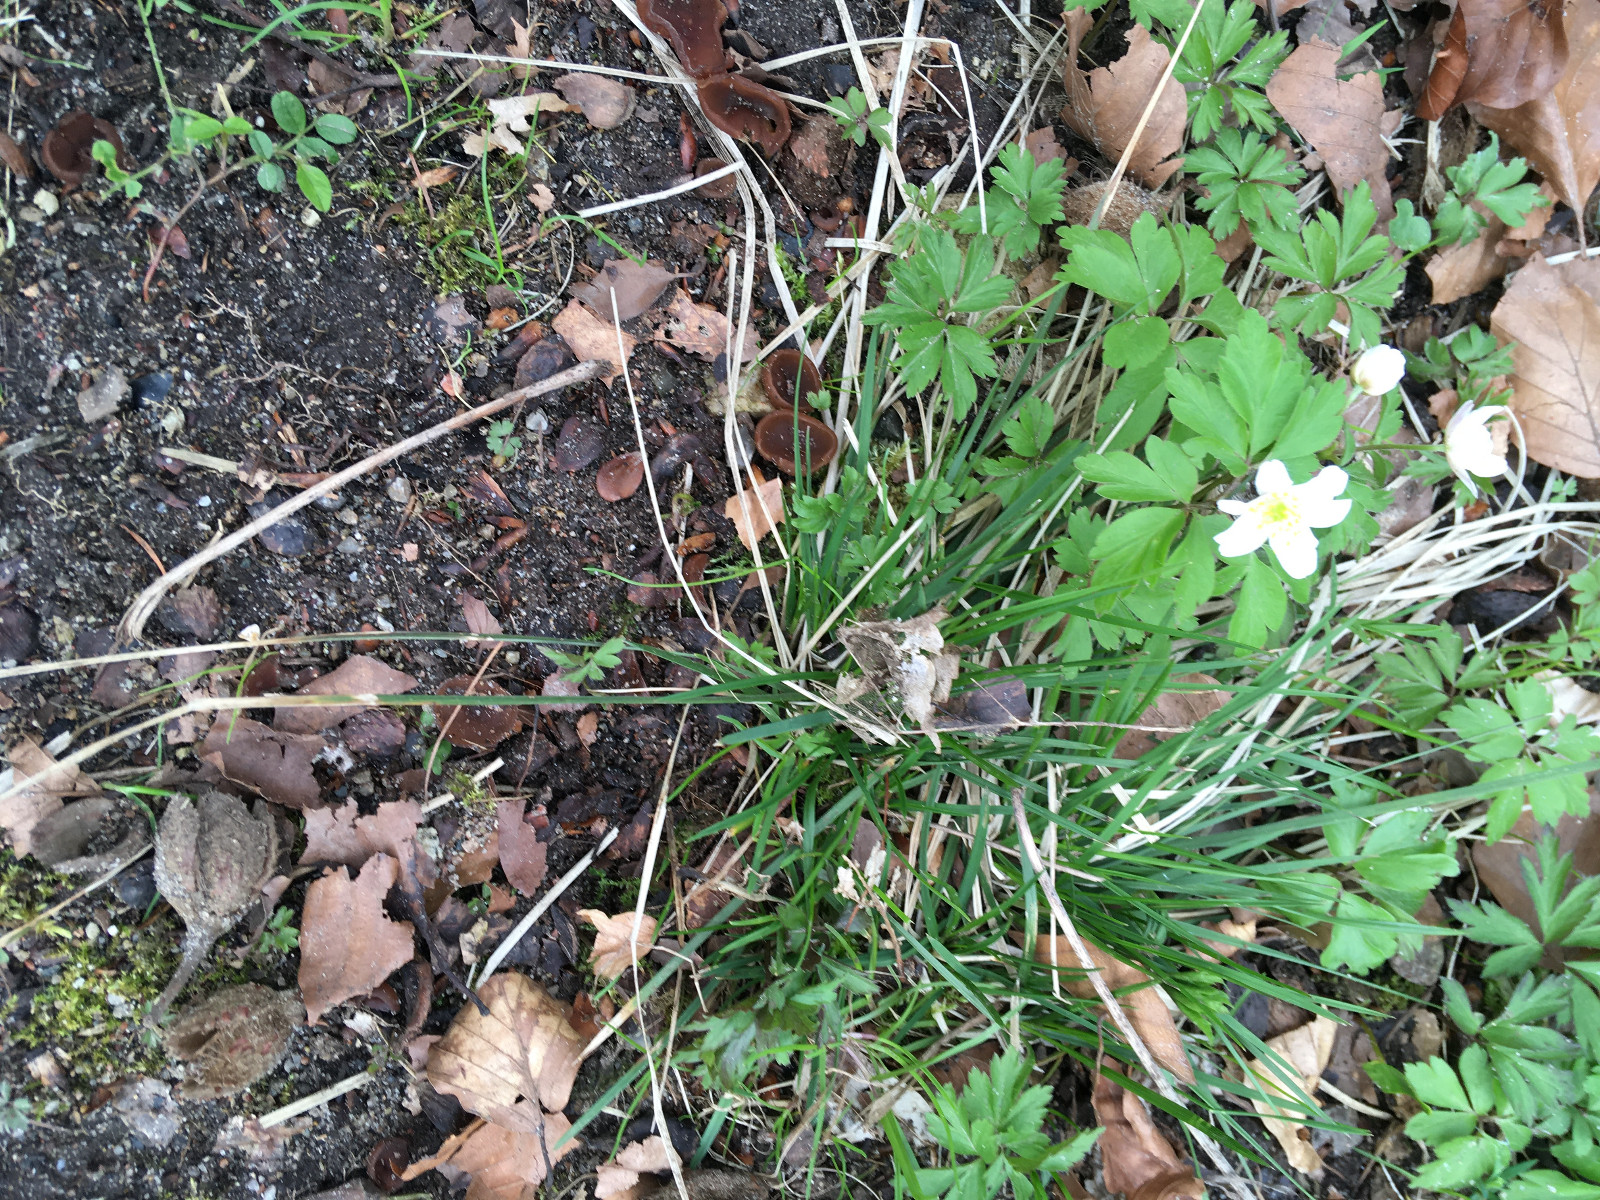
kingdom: Fungi
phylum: Ascomycota
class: Leotiomycetes
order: Helotiales
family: Sclerotiniaceae
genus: Dumontinia
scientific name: Dumontinia tuberosa
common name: anemone-knoldskive
